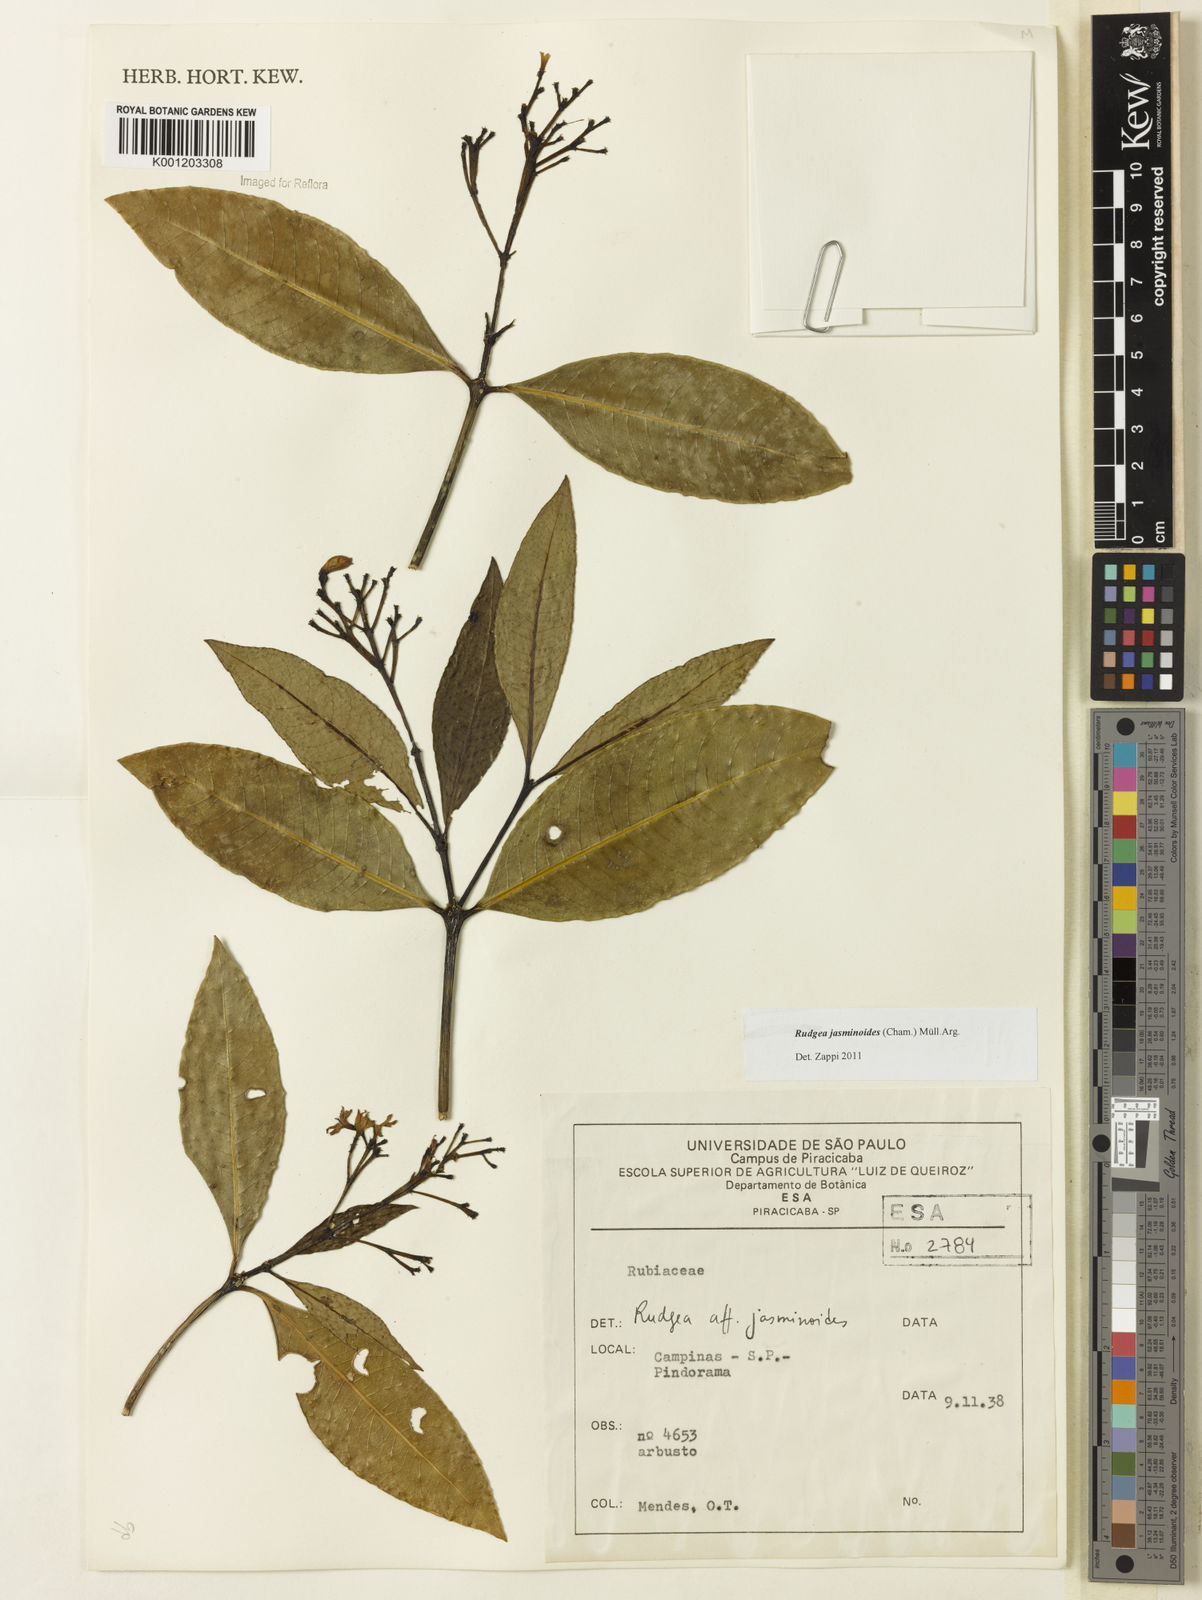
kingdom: Plantae
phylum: Tracheophyta
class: Magnoliopsida
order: Gentianales
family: Rubiaceae
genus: Rudgea
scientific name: Rudgea
